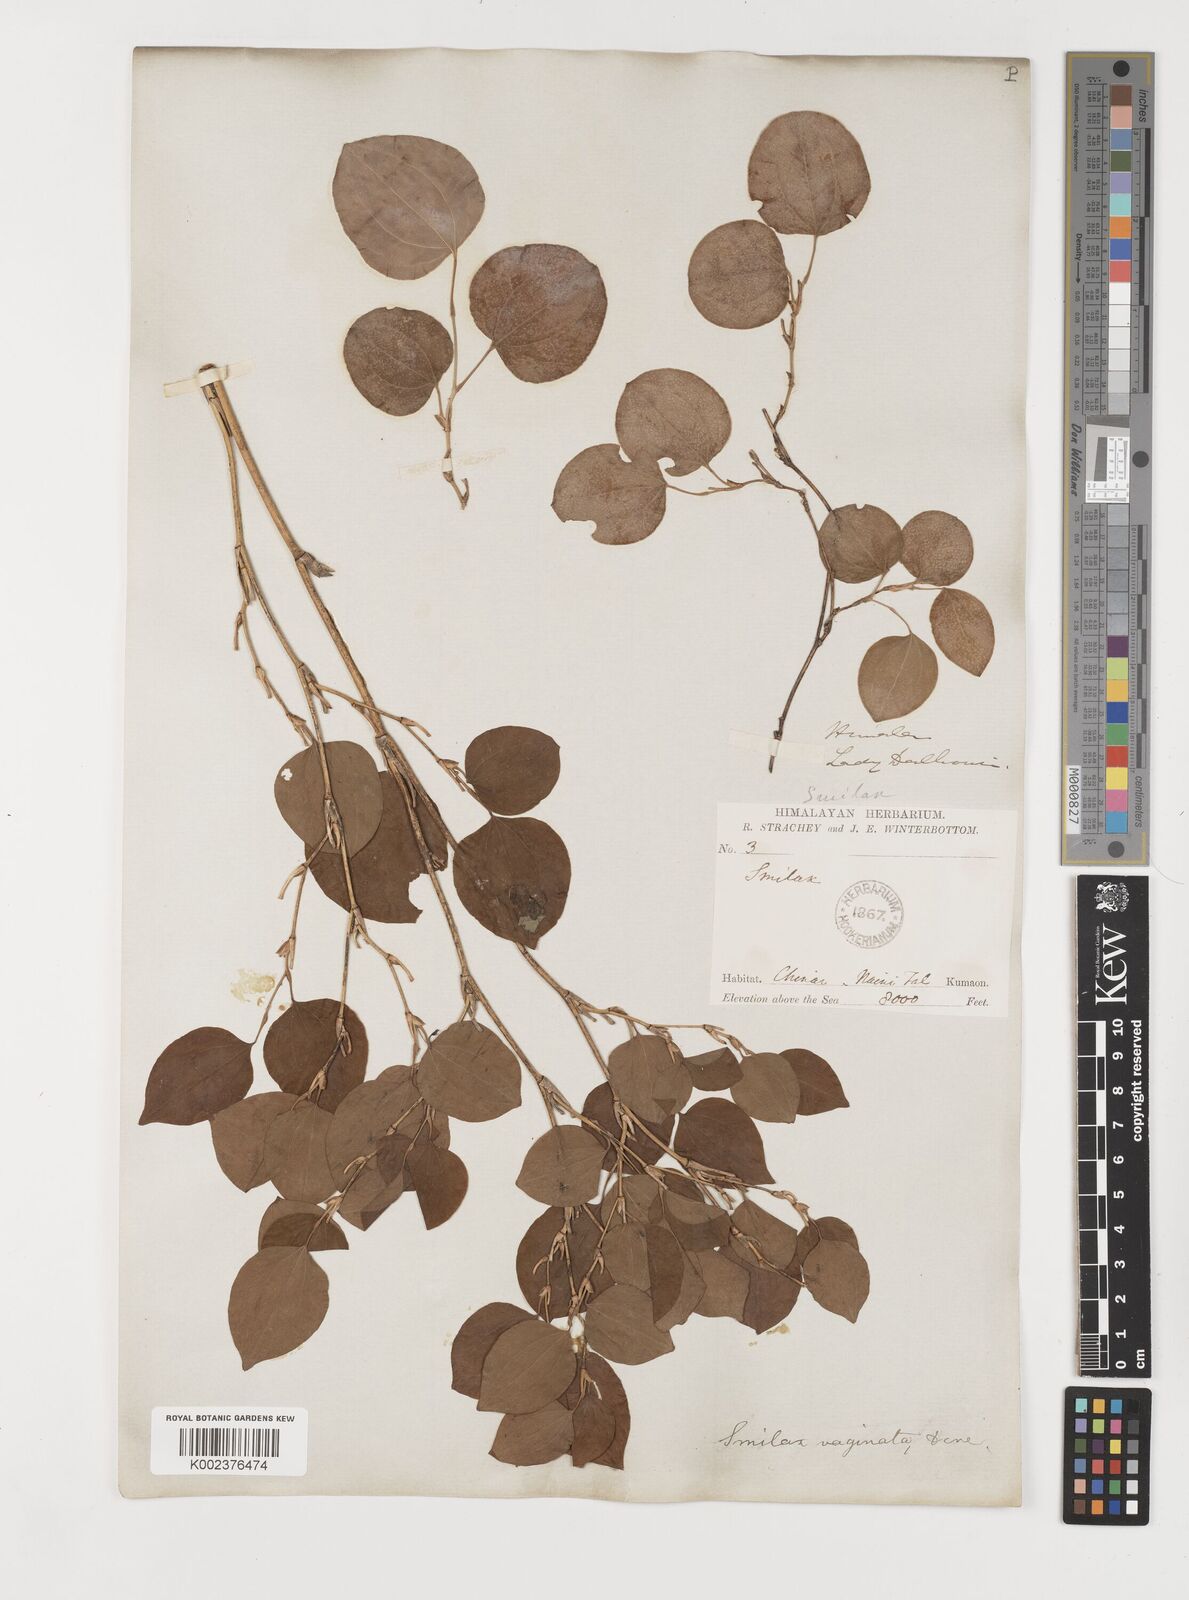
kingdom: Plantae
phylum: Tracheophyta
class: Liliopsida
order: Liliales
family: Smilacaceae
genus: Smilax
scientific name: Smilax vaginata
